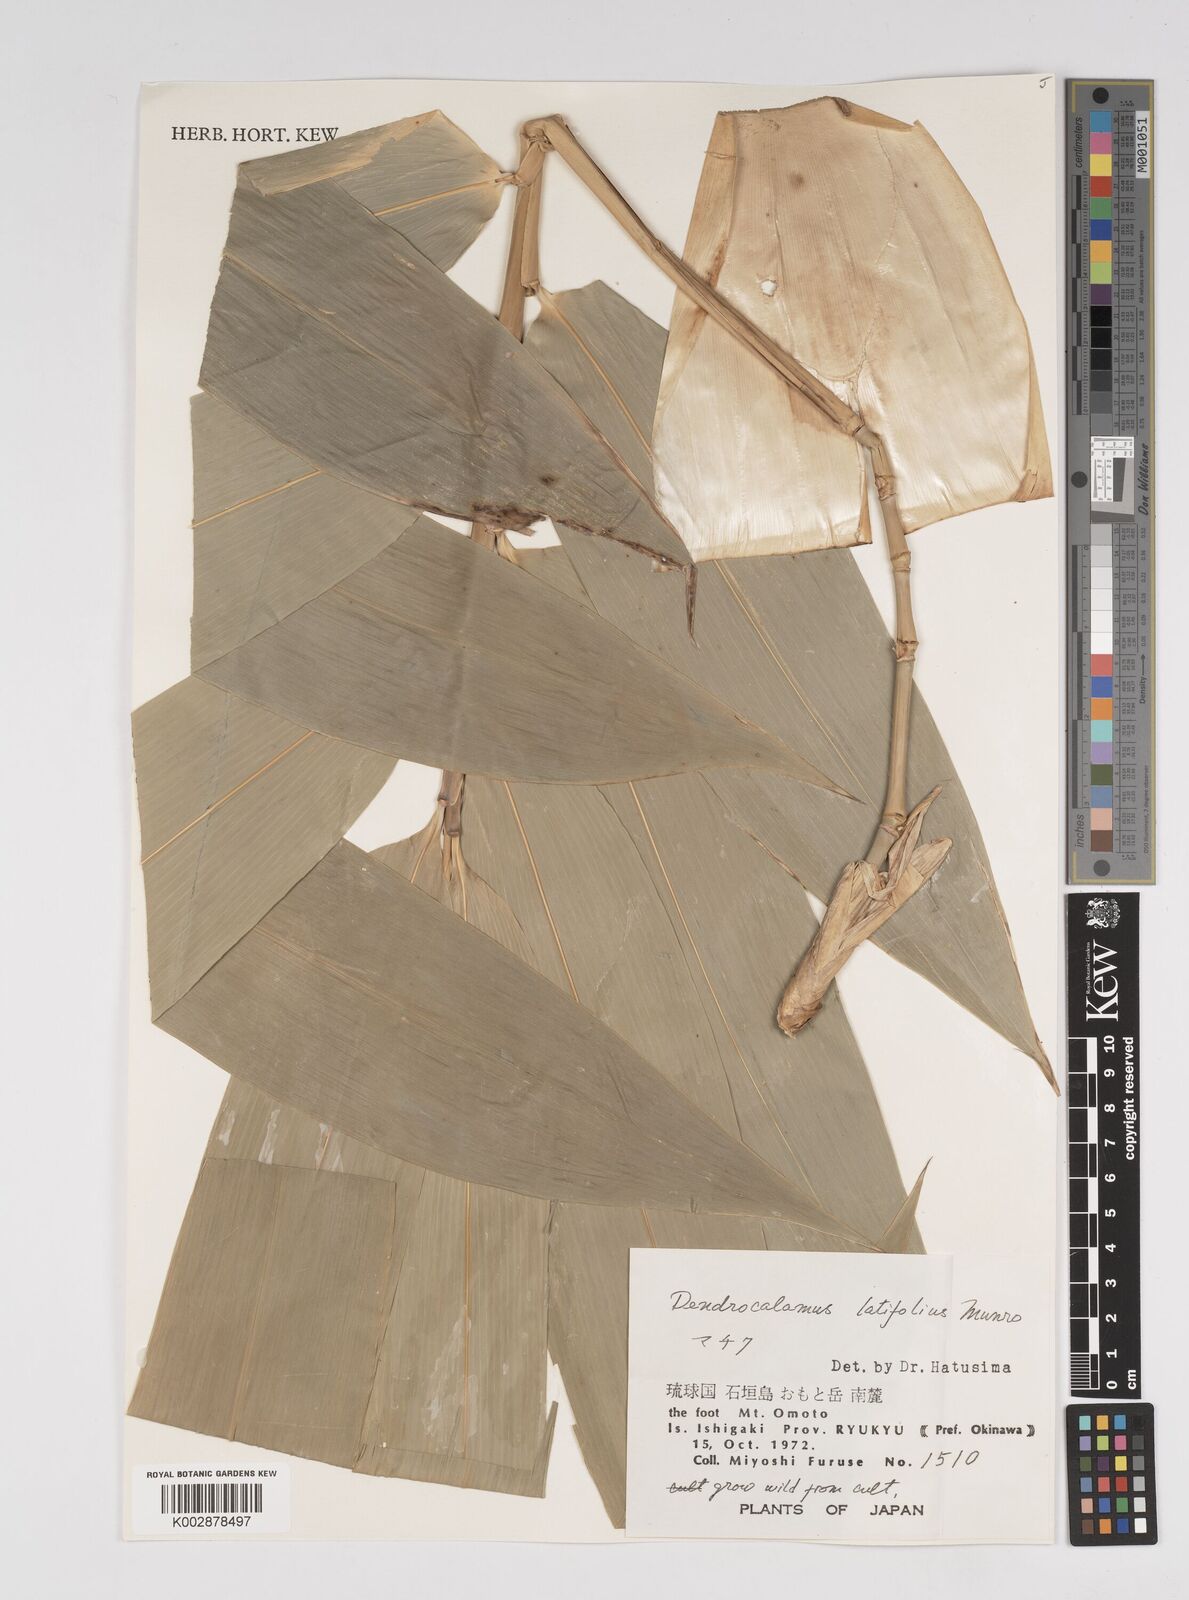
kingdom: Plantae
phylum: Tracheophyta
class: Liliopsida
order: Poales
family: Poaceae
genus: Dendrocalamus
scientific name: Dendrocalamus latiflorus
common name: Giant bamboo
